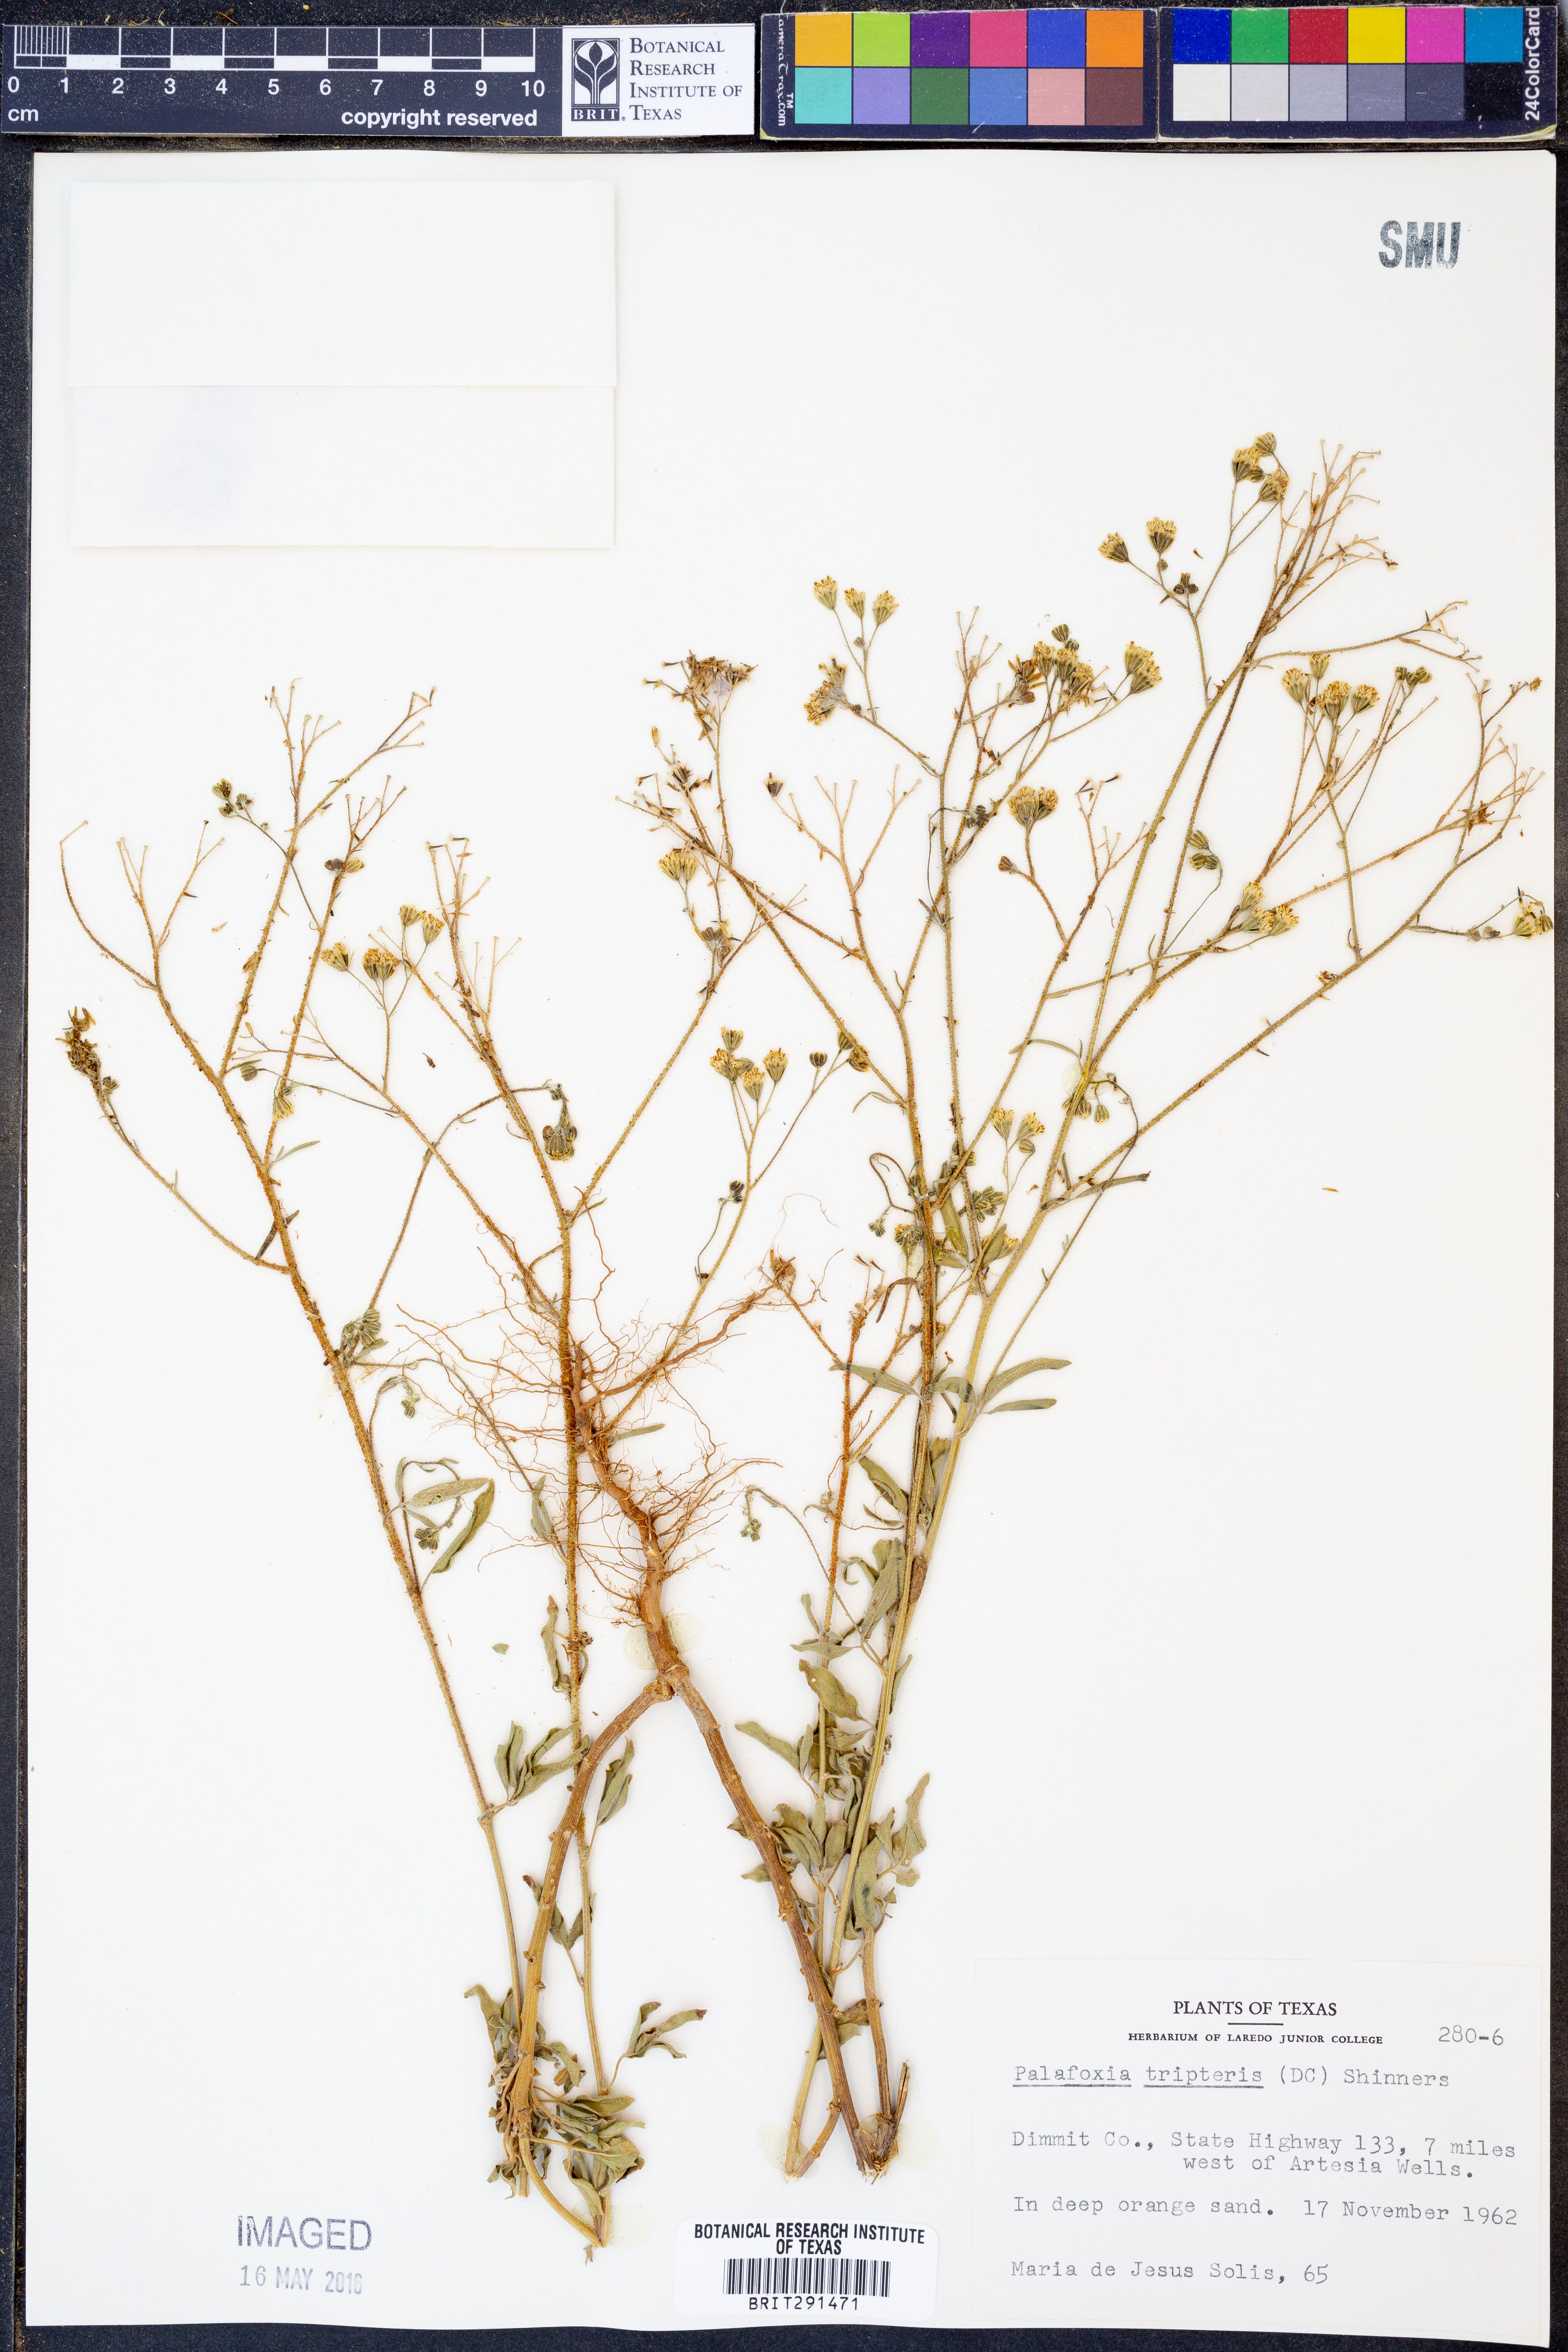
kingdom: Plantae
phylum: Tracheophyta
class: Magnoliopsida
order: Asterales
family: Asteraceae
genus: Florestina
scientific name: Florestina tripteris
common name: Sticky florestina
